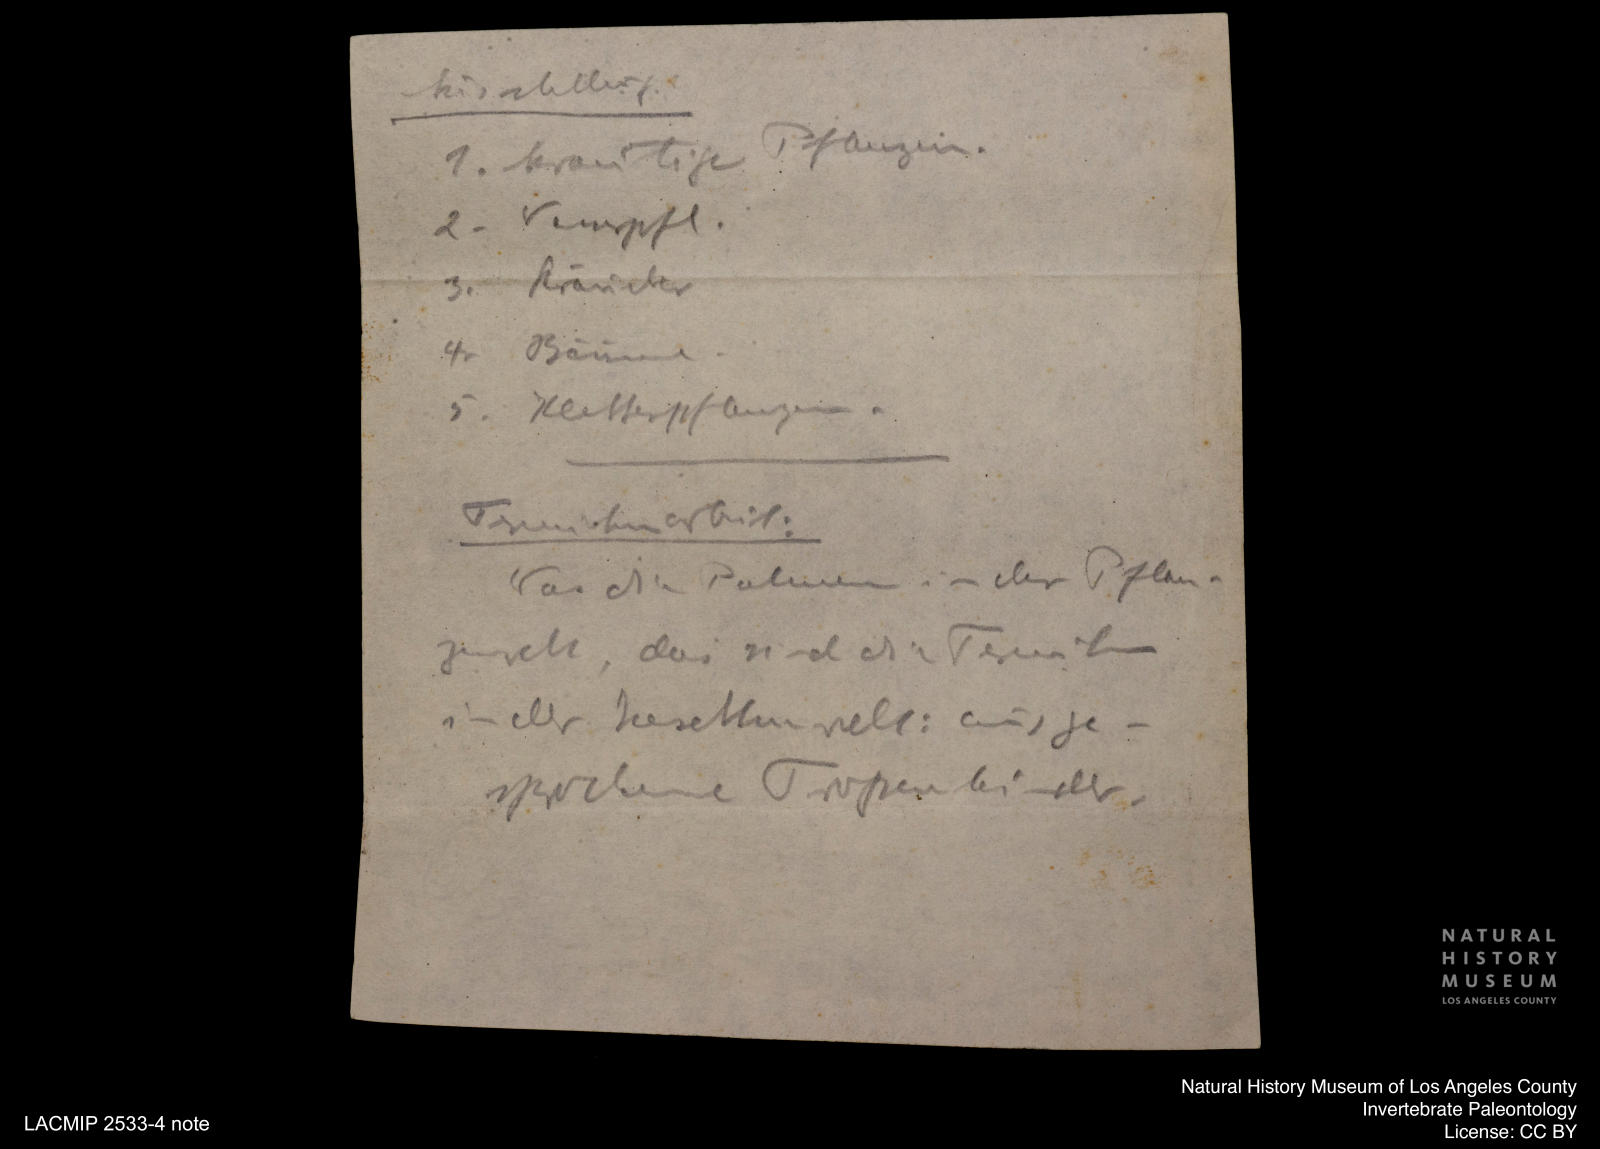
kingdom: Animalia
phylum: Arthropoda
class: Insecta
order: Odonata
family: Lestidae
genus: Lestes
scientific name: Lestes
